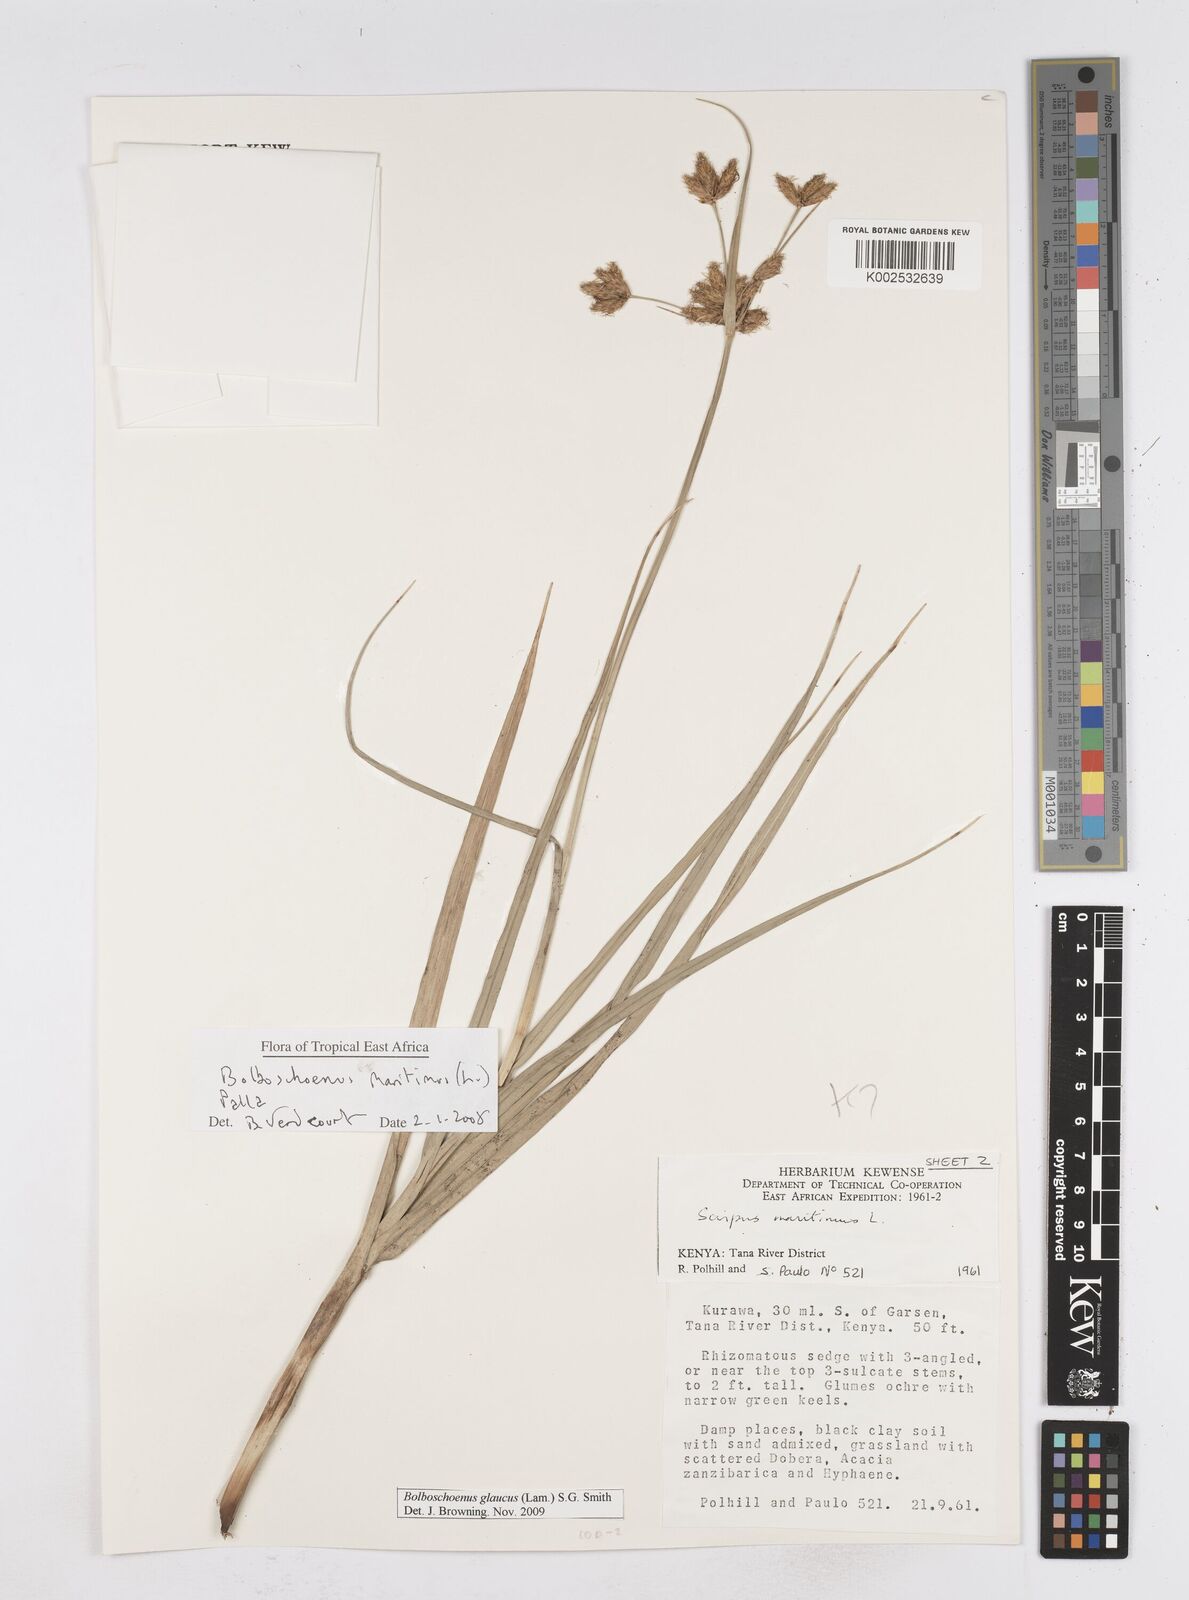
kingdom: Plantae
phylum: Tracheophyta
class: Liliopsida
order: Poales
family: Cyperaceae
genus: Bolboschoenus
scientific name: Bolboschoenus glaucus
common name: Tuberous bulrush
